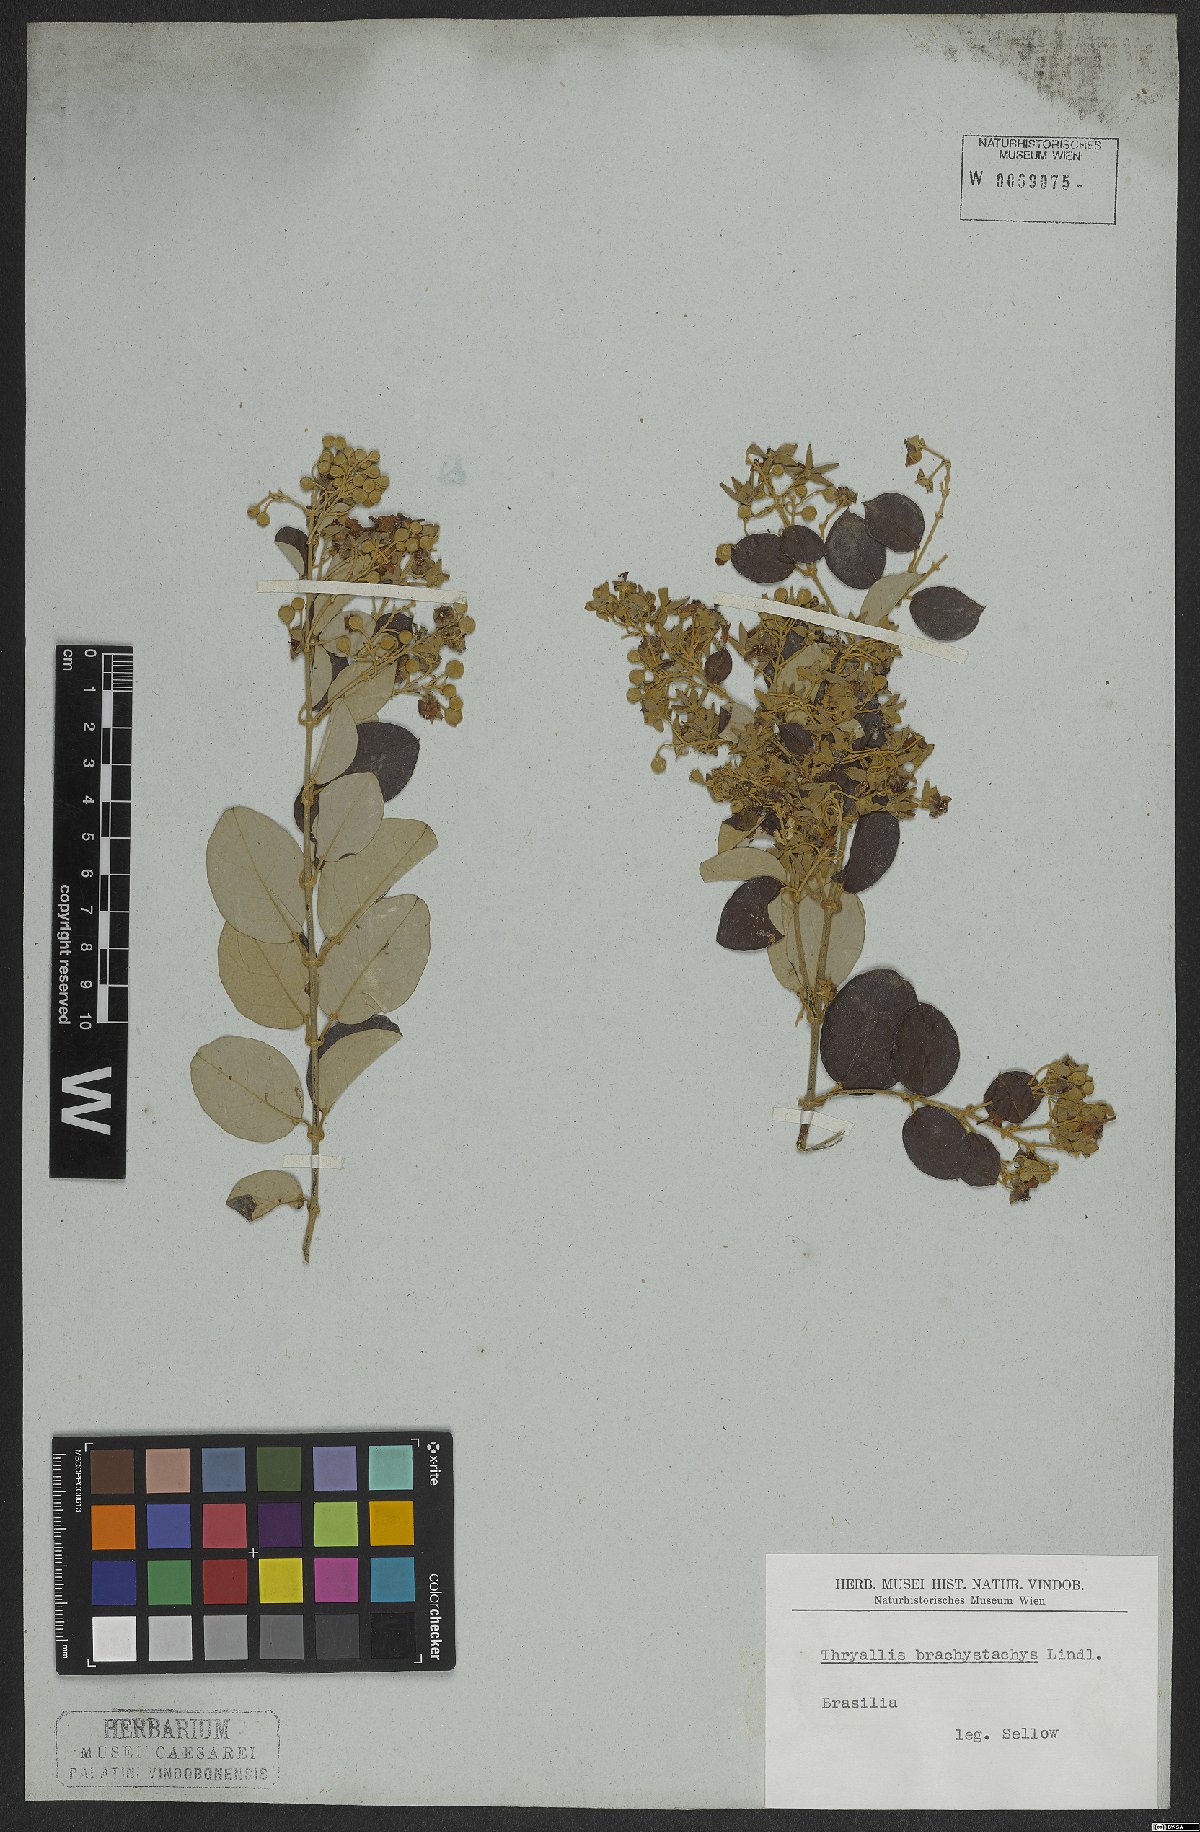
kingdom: Plantae
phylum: Tracheophyta
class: Magnoliopsida
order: Malpighiales
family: Malpighiaceae
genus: Thryallis
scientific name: Thryallis laburnum
